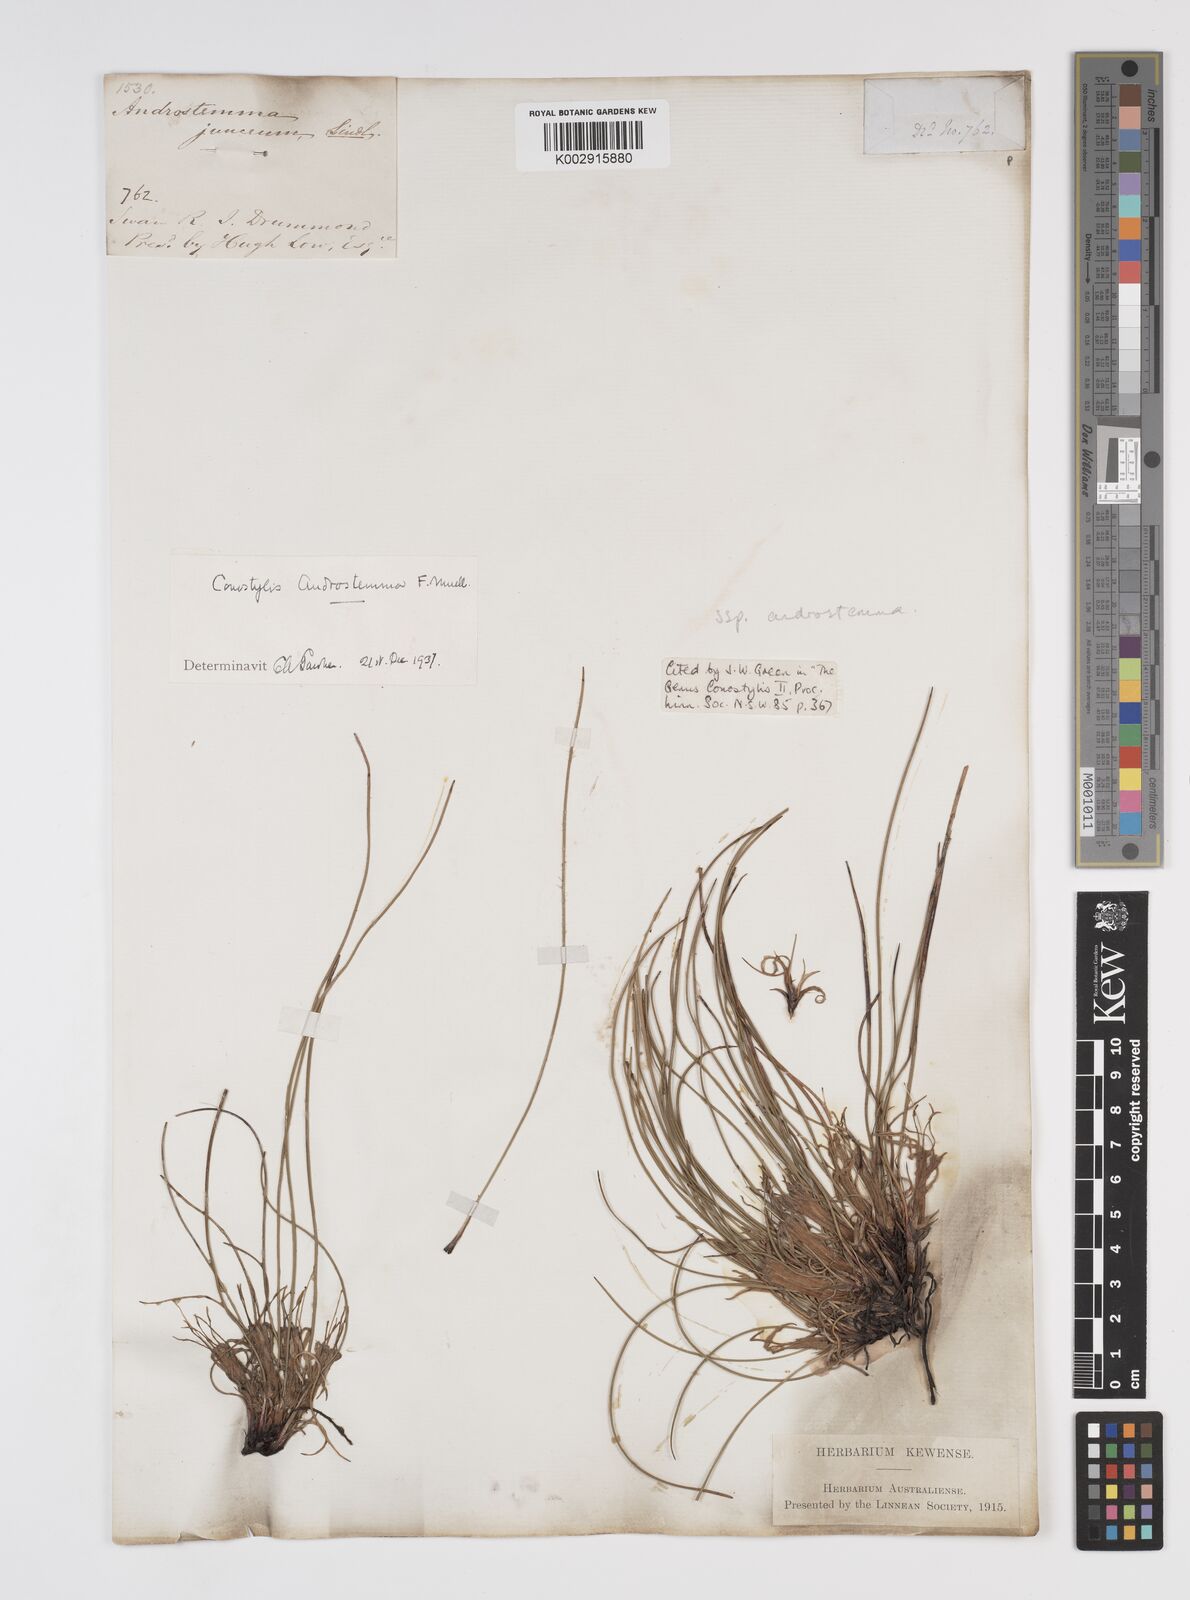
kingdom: Plantae
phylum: Tracheophyta
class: Liliopsida
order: Commelinales
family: Haemodoraceae
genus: Conostylis
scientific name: Conostylis androstemma
